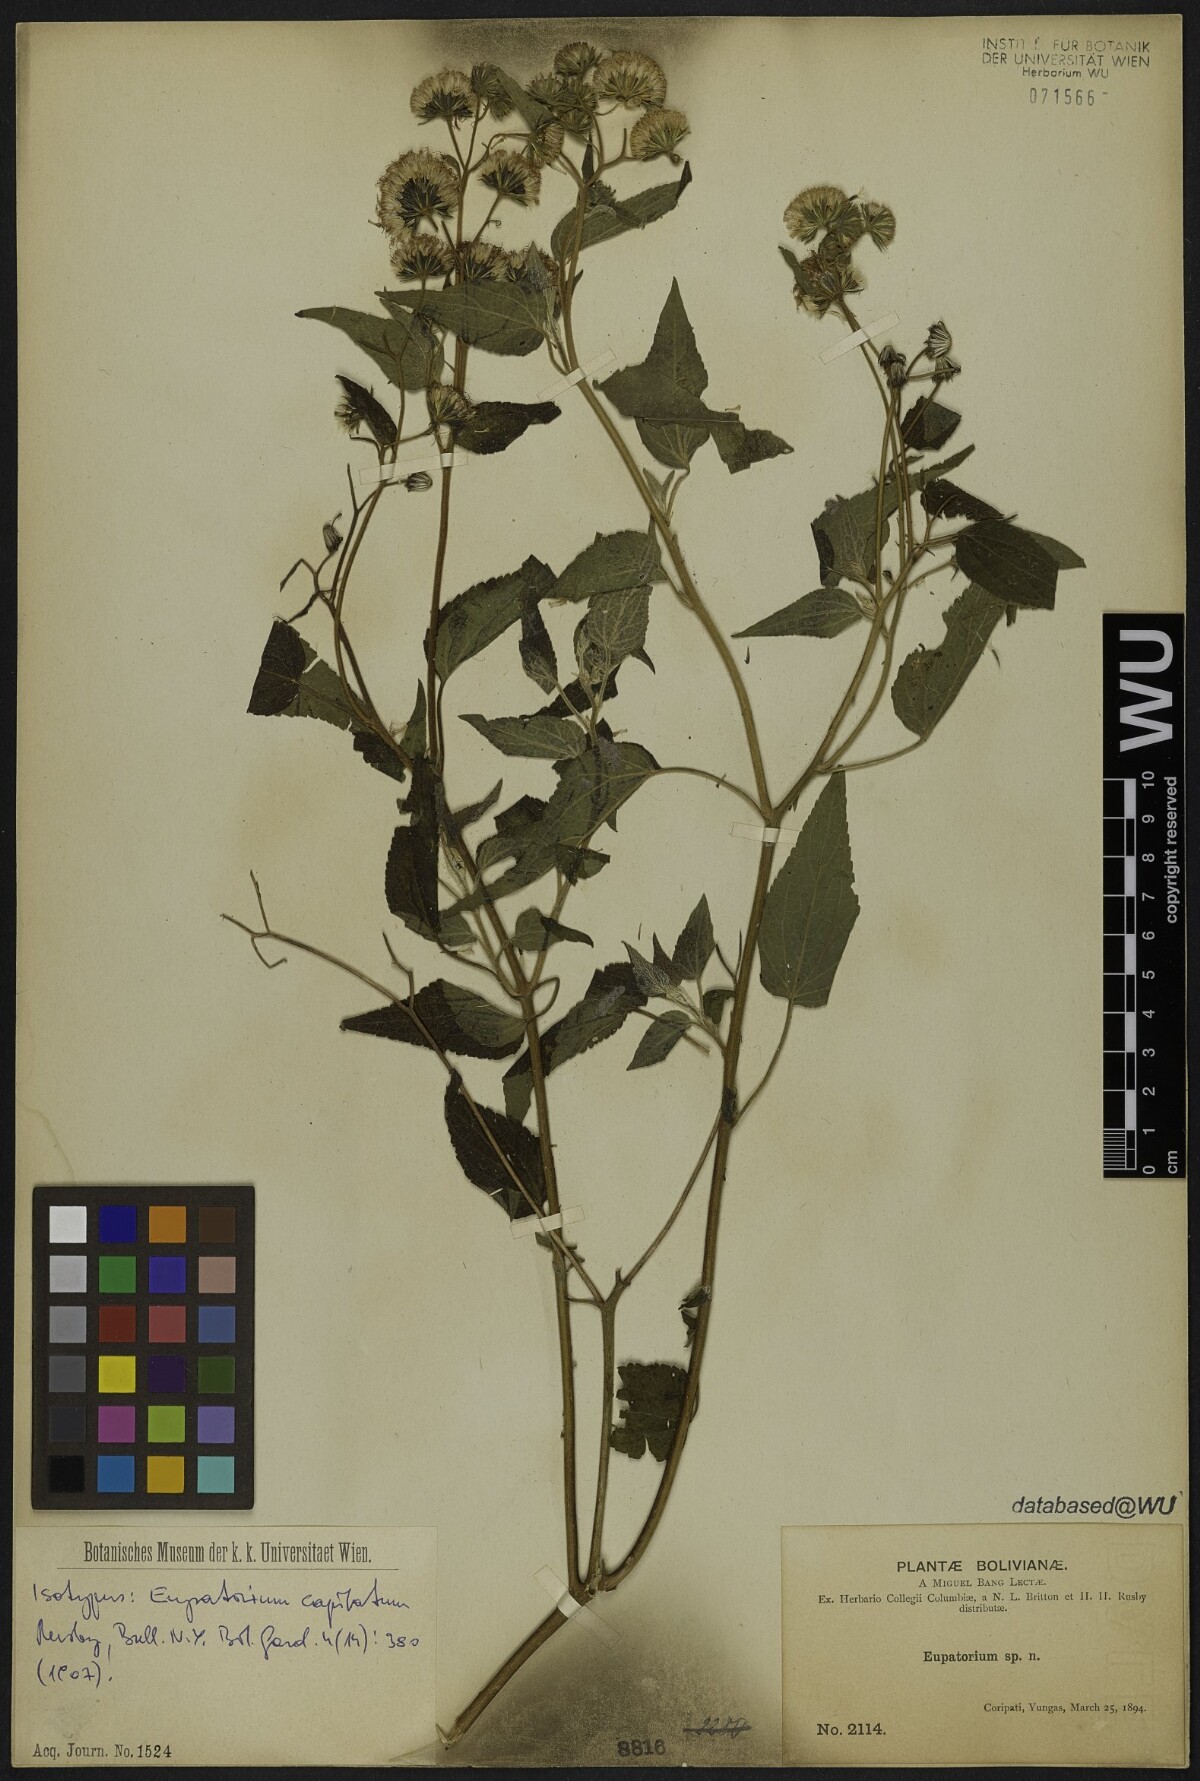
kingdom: Plantae
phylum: Tracheophyta
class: Magnoliopsida
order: Asterales
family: Asteraceae
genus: Trichogonia
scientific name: Trichogonia capitata
